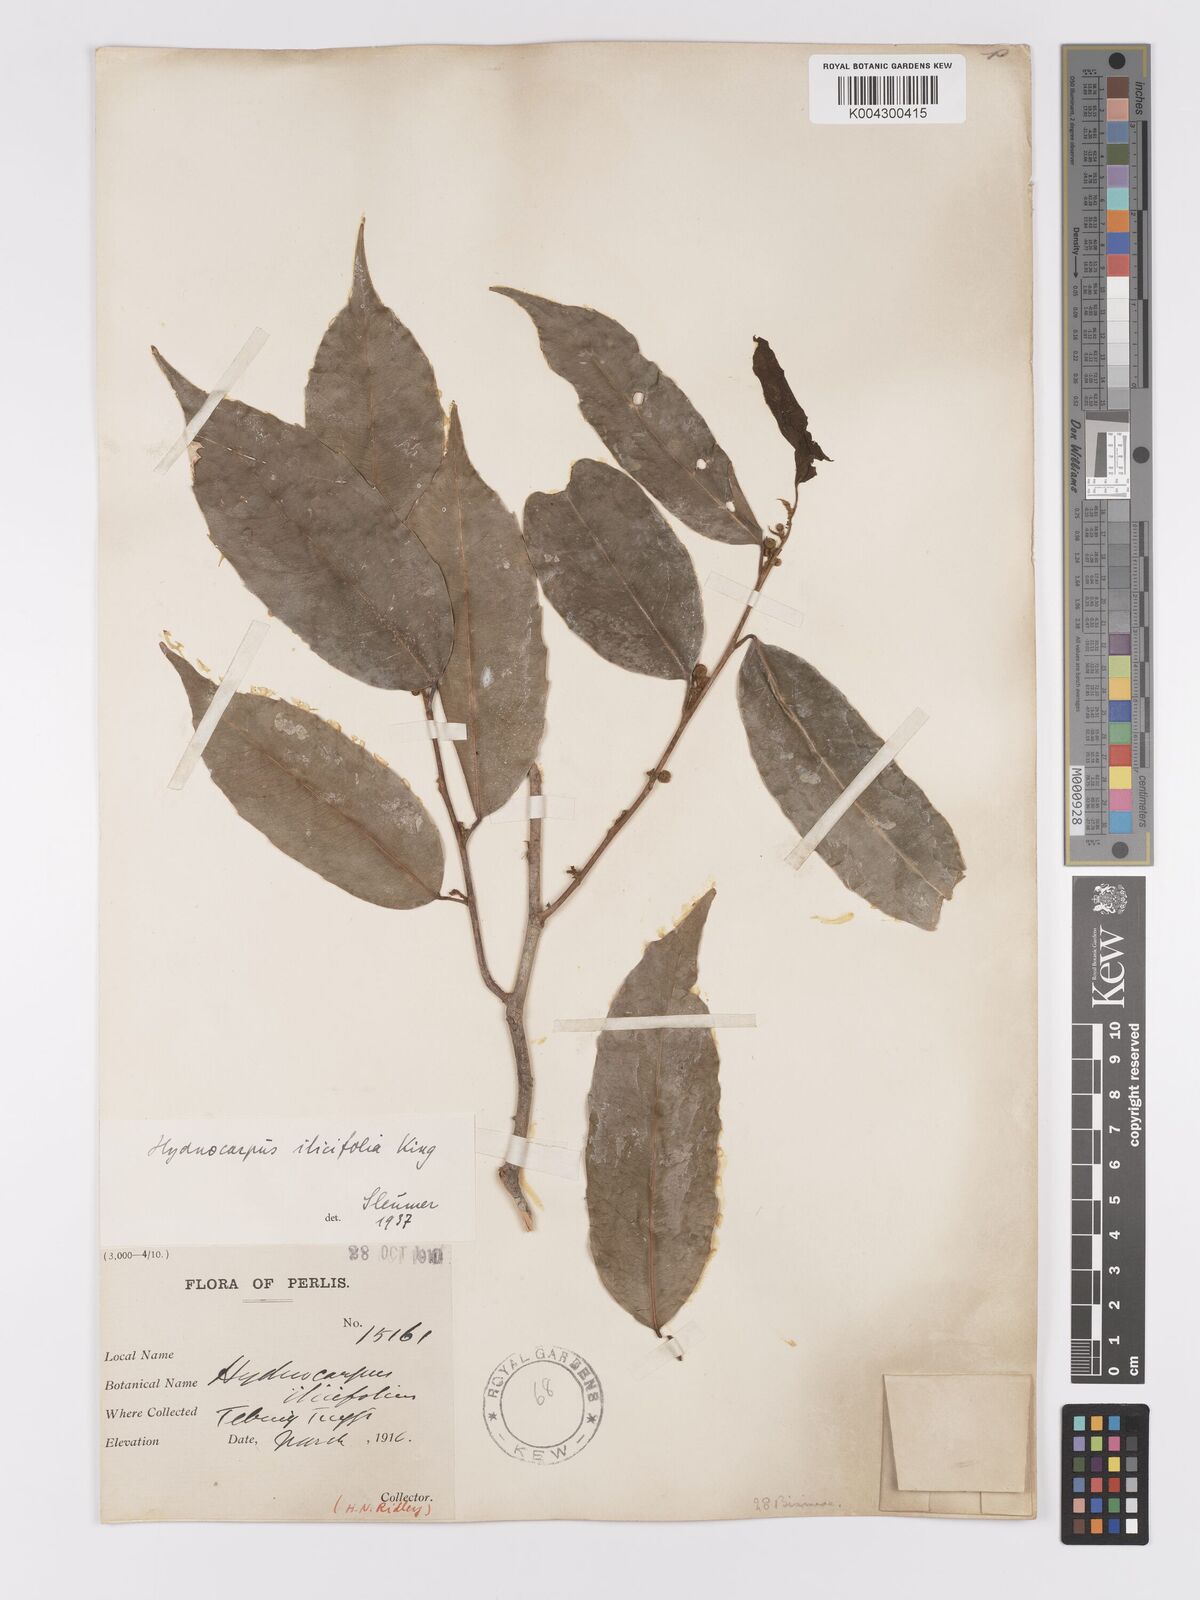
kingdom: Plantae
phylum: Tracheophyta
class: Magnoliopsida
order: Malpighiales
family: Achariaceae
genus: Hydnocarpus
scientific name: Hydnocarpus ilicifolius
